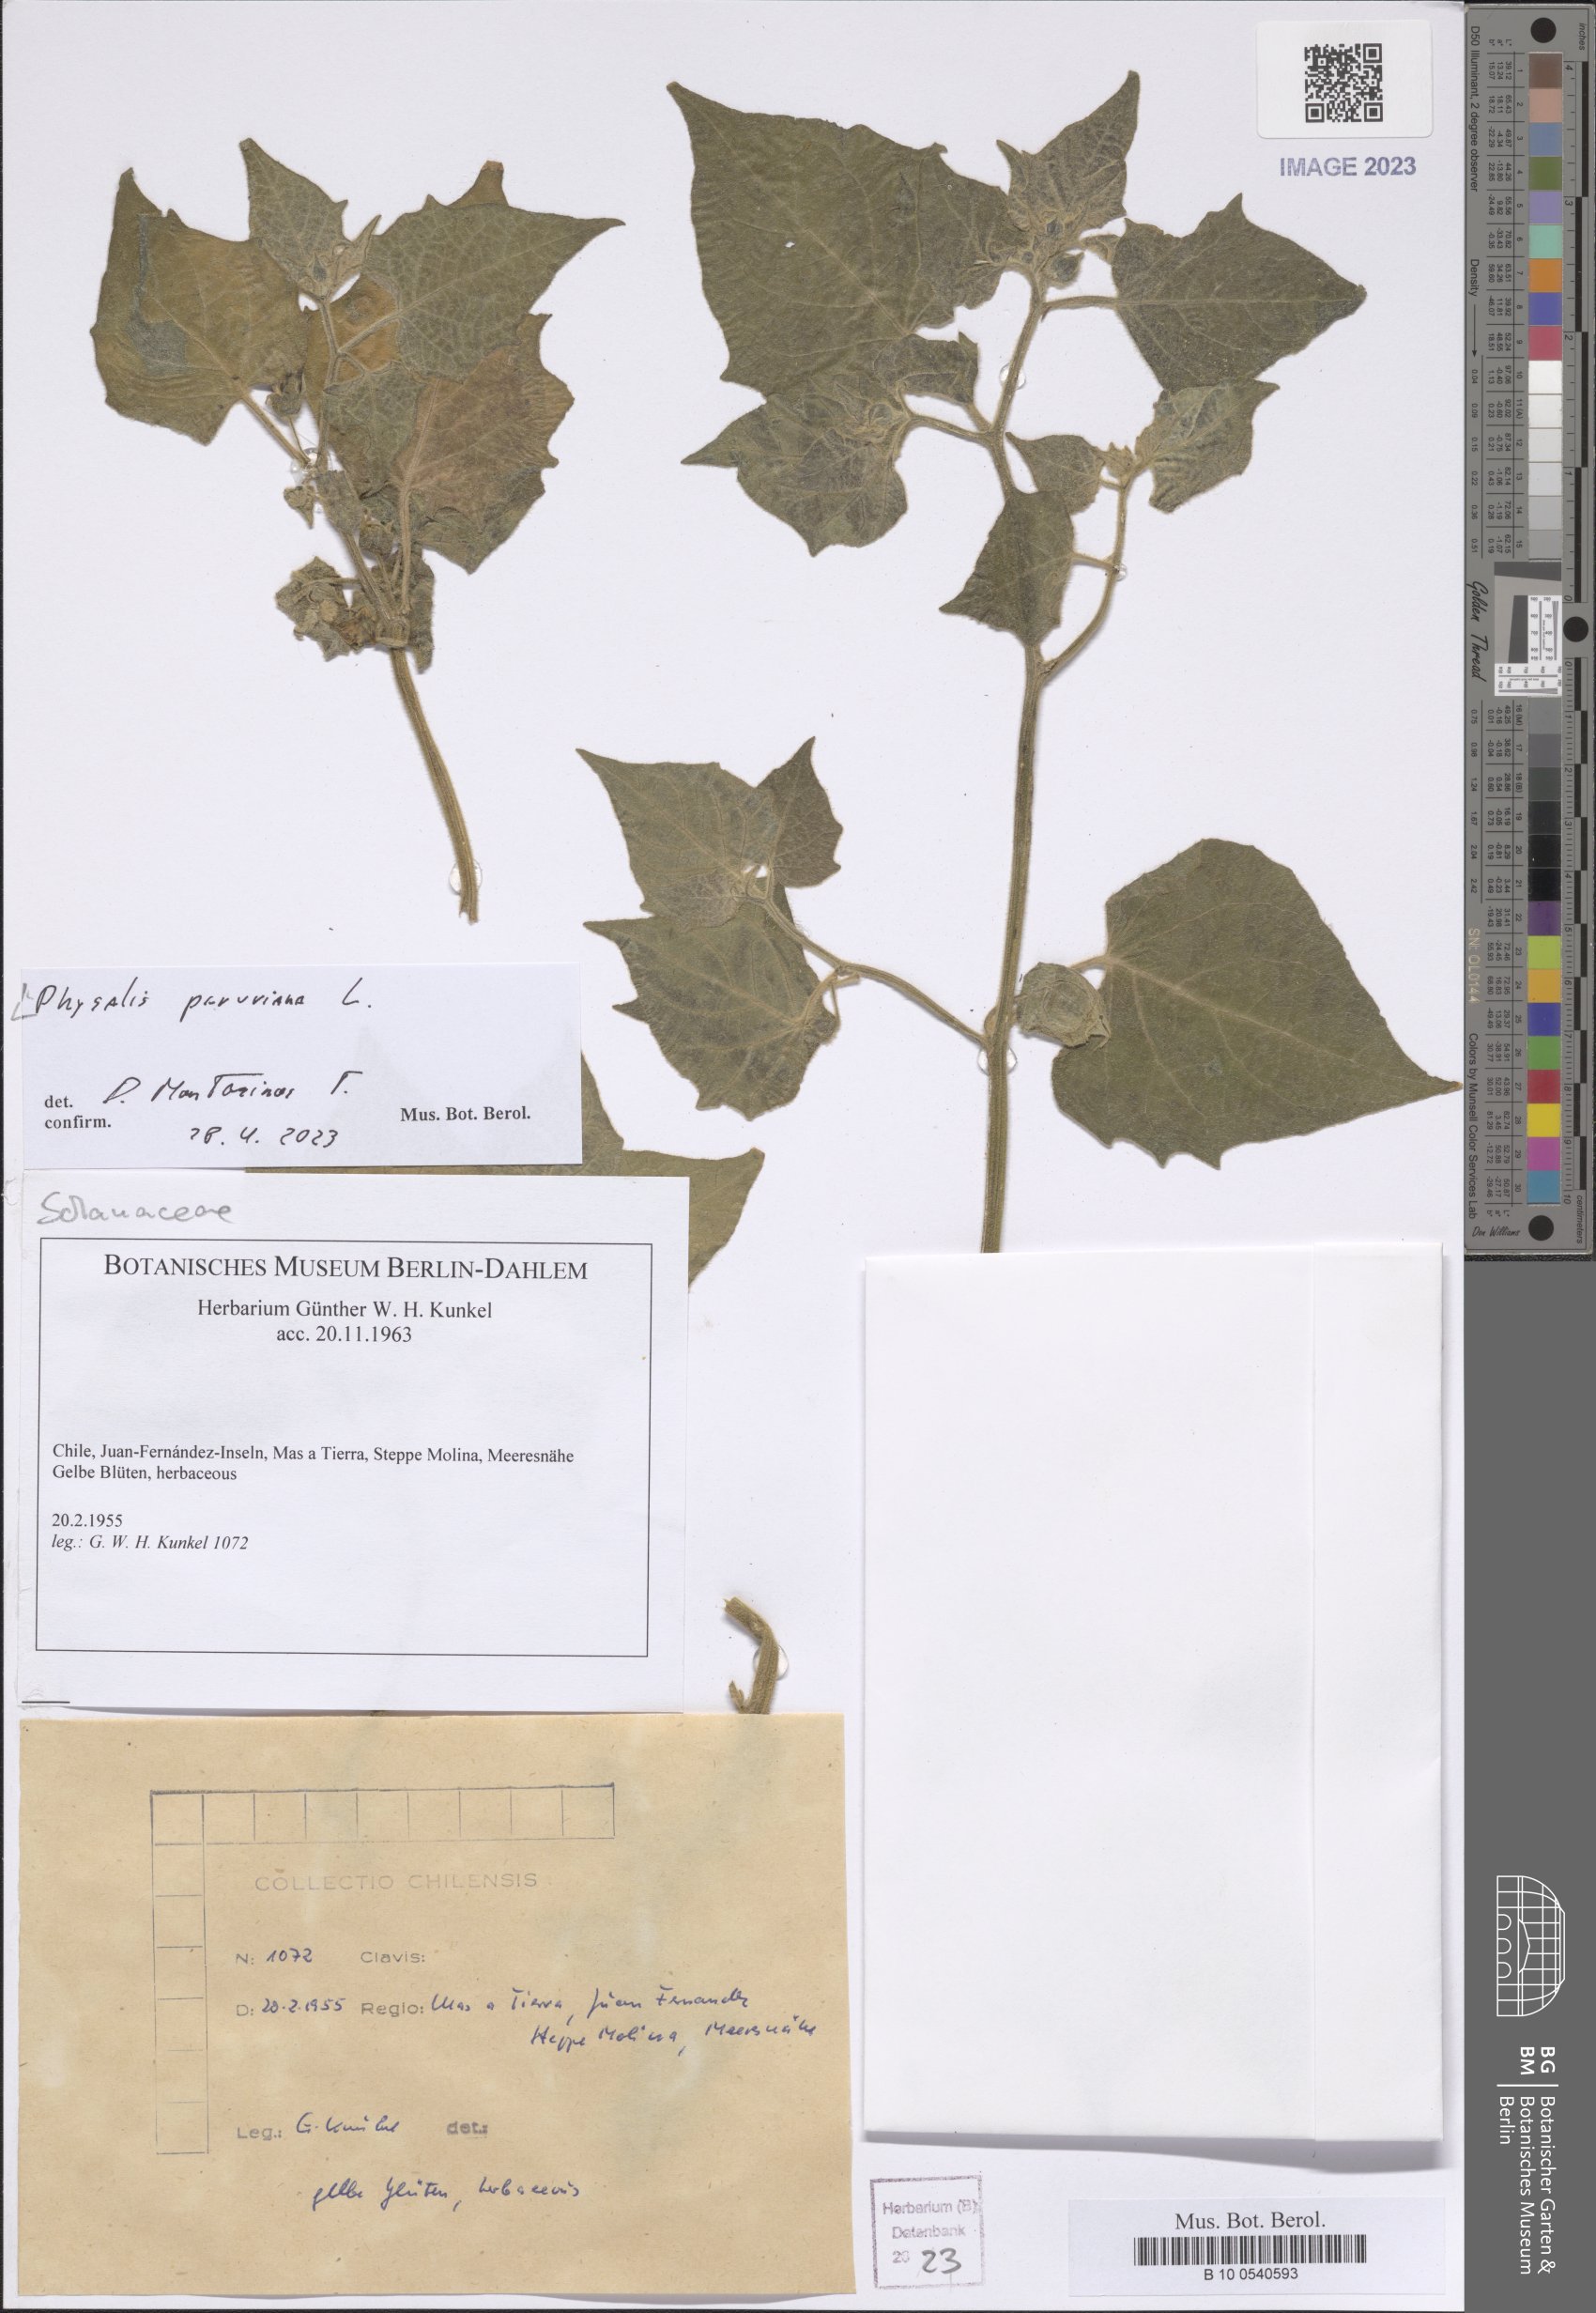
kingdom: Plantae
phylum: Tracheophyta
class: Magnoliopsida
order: Solanales
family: Solanaceae
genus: Physalis
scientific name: Physalis peruviana
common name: Cape-gooseberry
